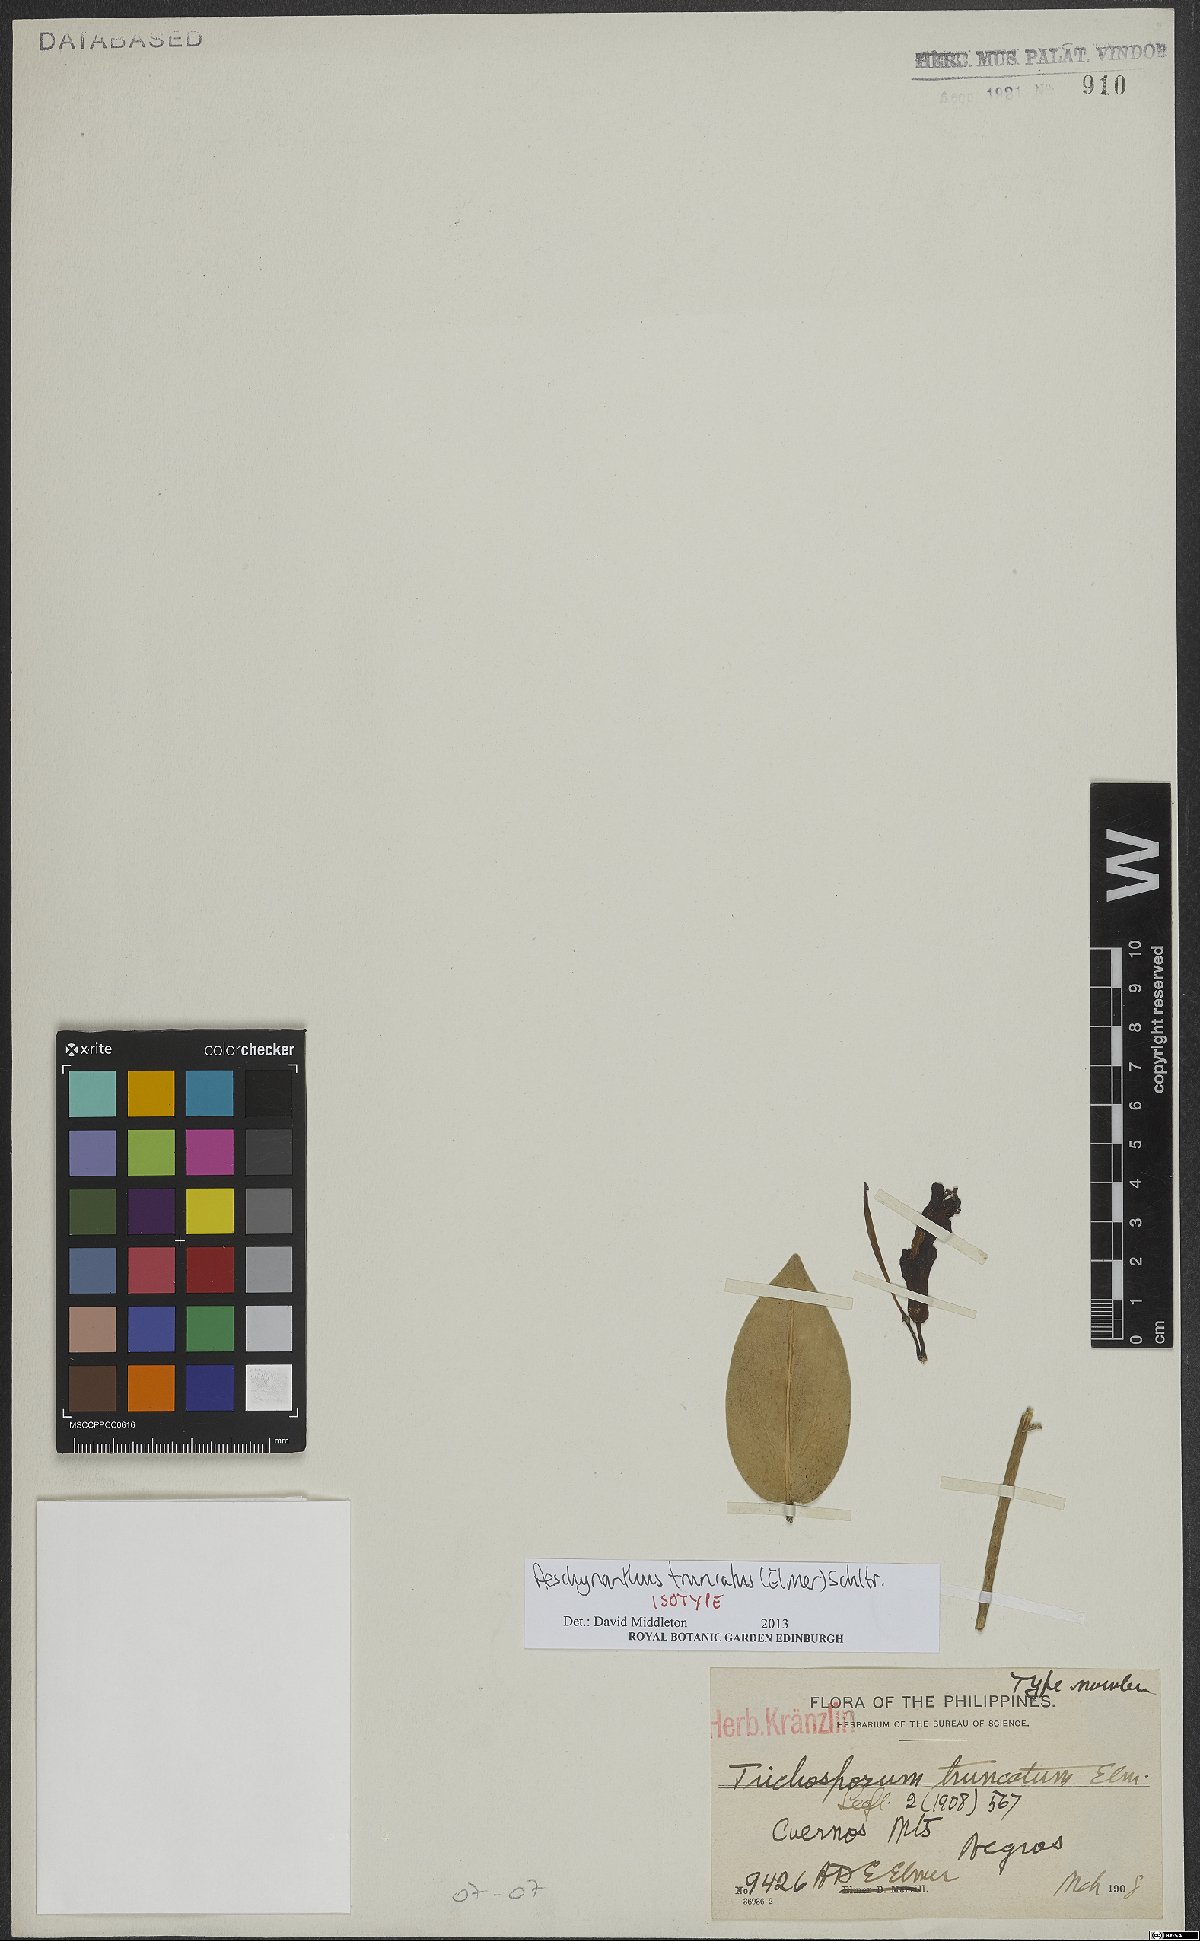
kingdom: Plantae
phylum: Tracheophyta
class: Magnoliopsida
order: Lamiales
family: Gesneriaceae
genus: Aeschynanthus
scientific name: Aeschynanthus truncatus
